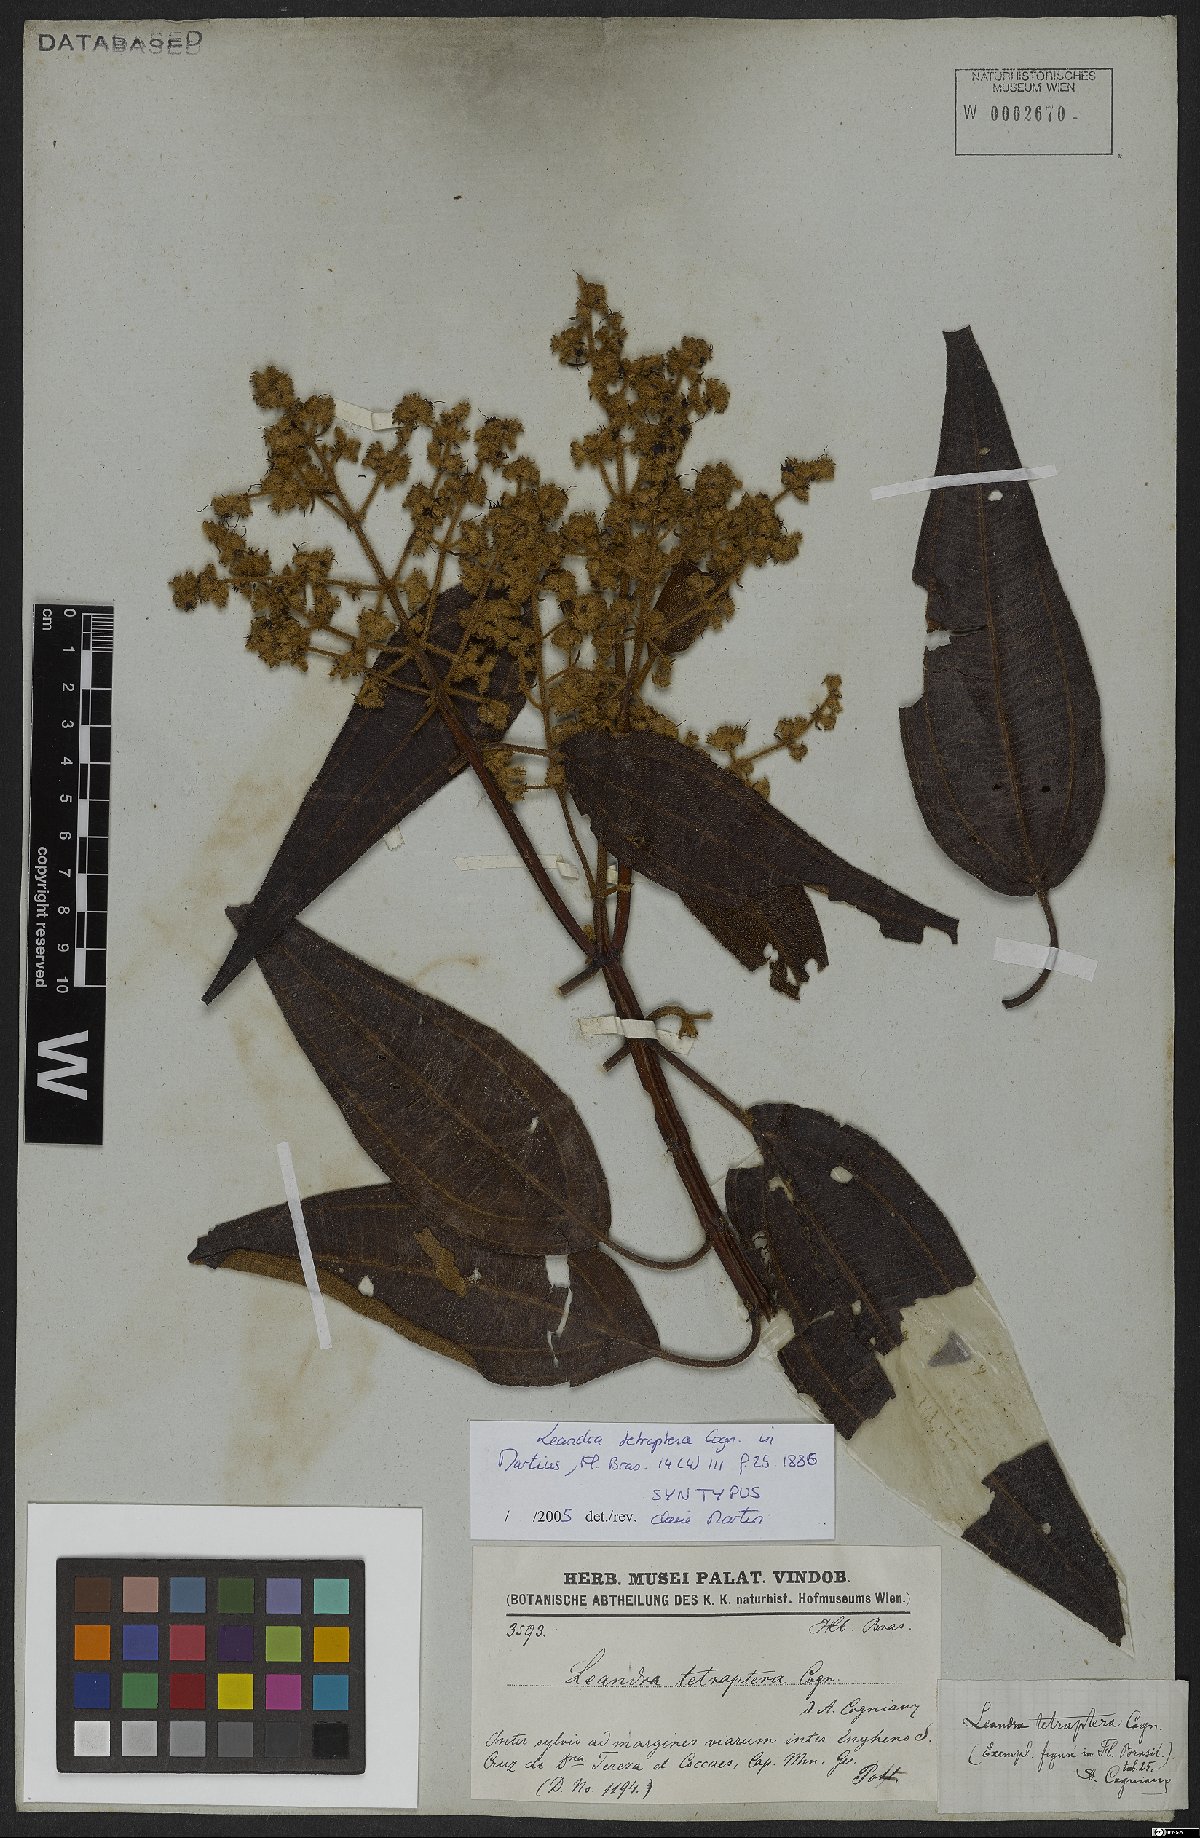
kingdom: Plantae
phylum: Tracheophyta
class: Magnoliopsida
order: Myrtales
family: Melastomataceae
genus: Miconia
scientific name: Miconia leatetraptera
